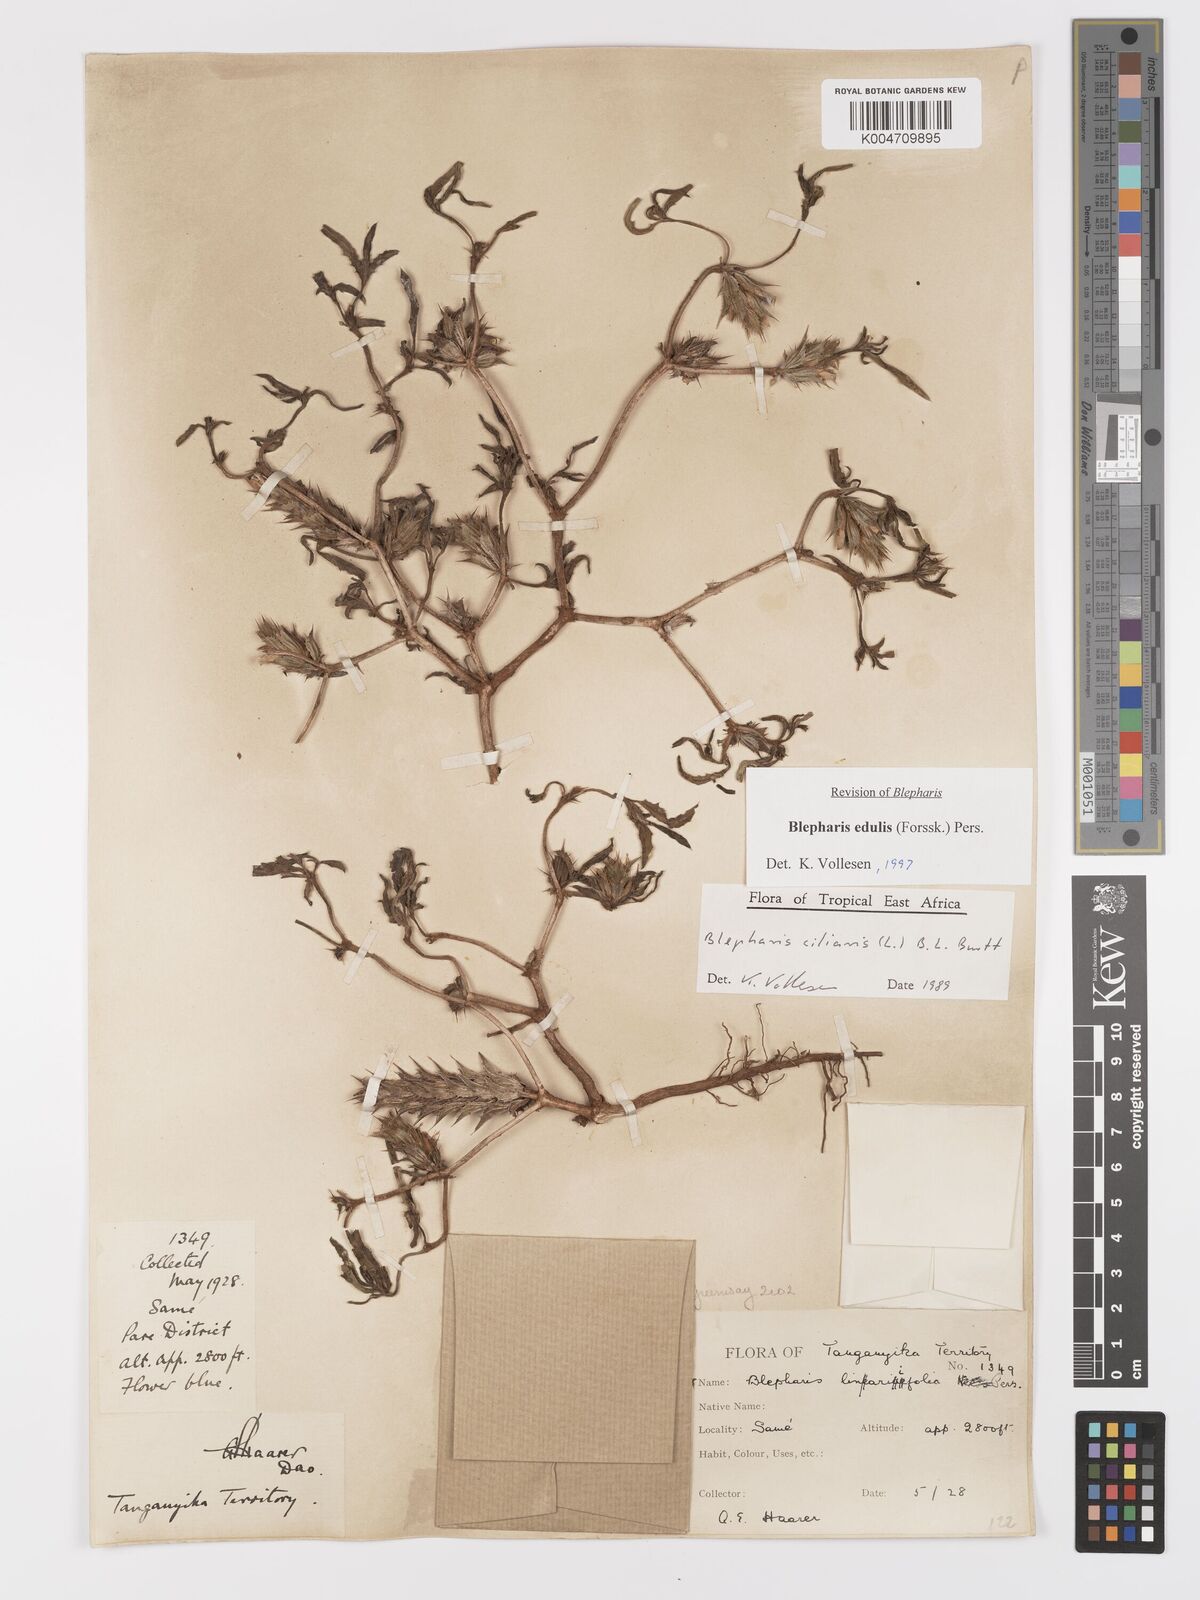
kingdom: Plantae
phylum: Tracheophyta
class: Magnoliopsida
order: Lamiales
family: Acanthaceae
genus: Blepharis
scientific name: Blepharis edulis
